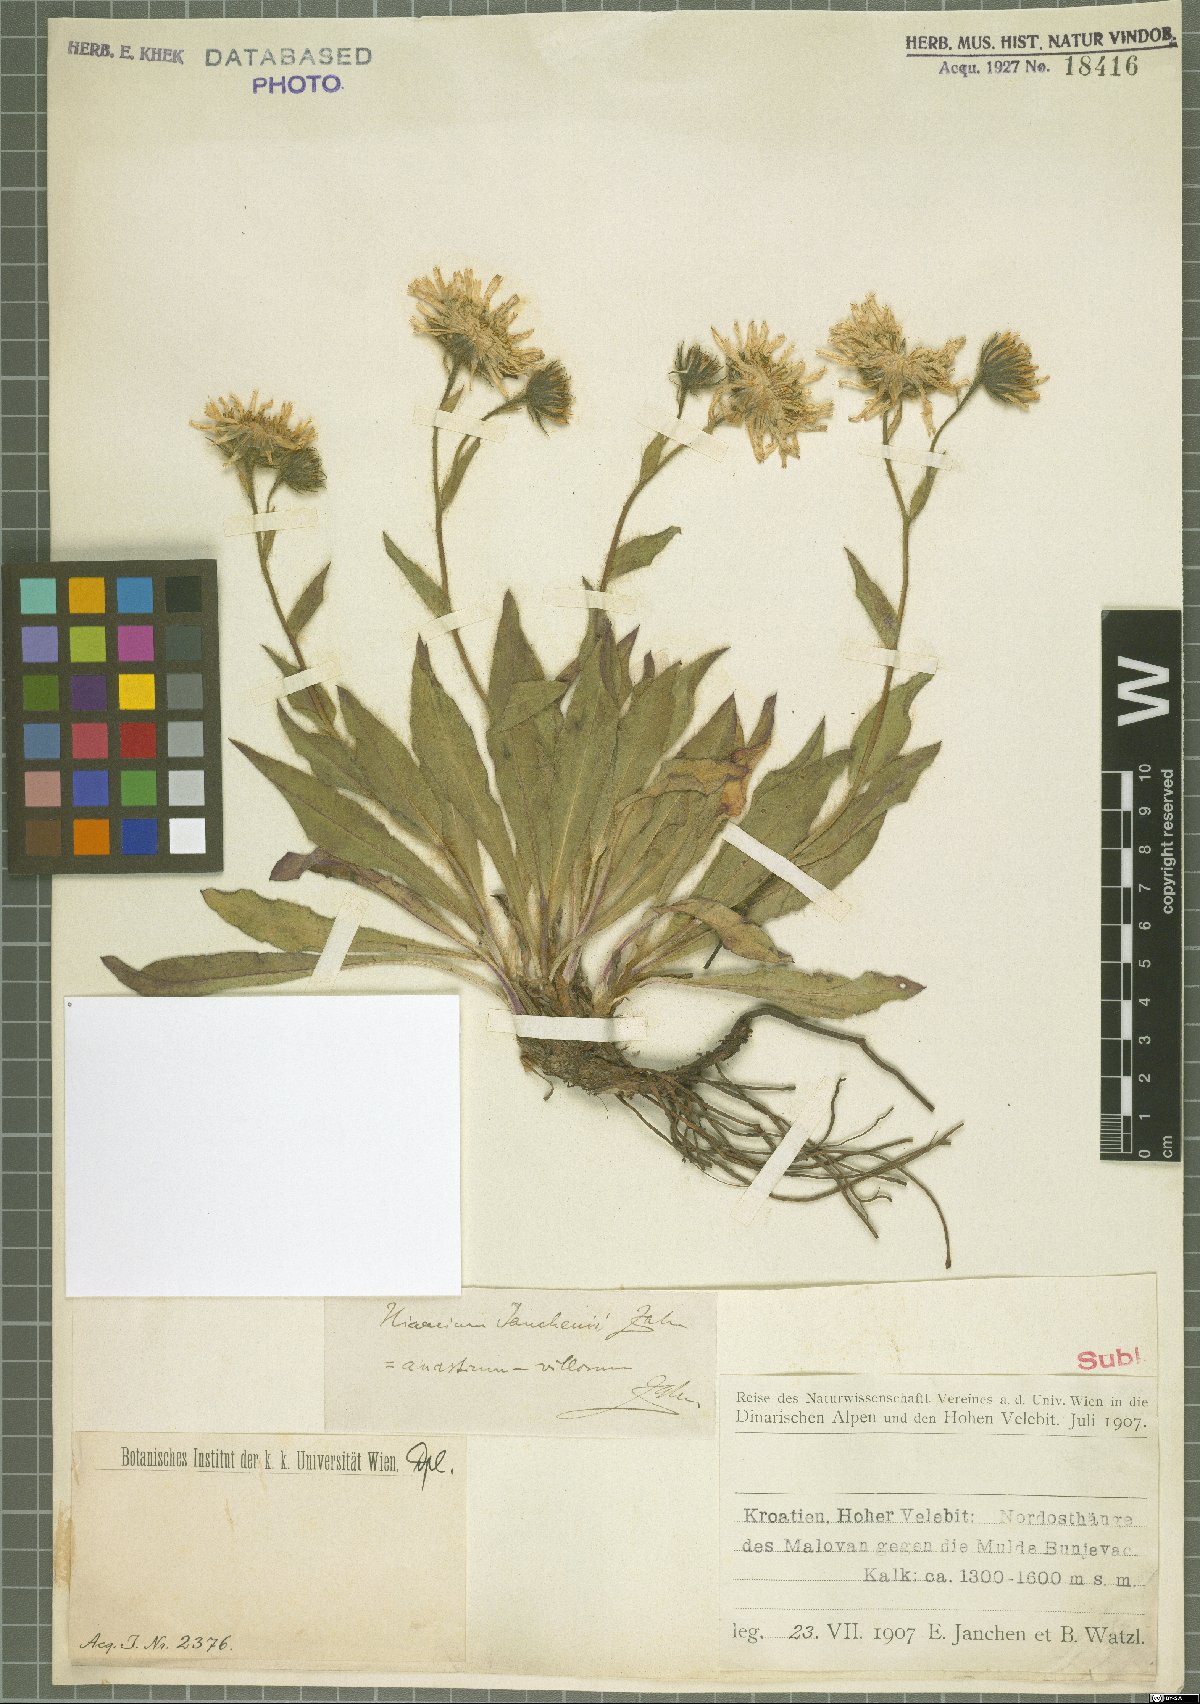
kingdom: Plantae
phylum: Tracheophyta
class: Magnoliopsida
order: Asterales
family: Asteraceae
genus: Hieracium
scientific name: Hieracium guentheri-beckii
